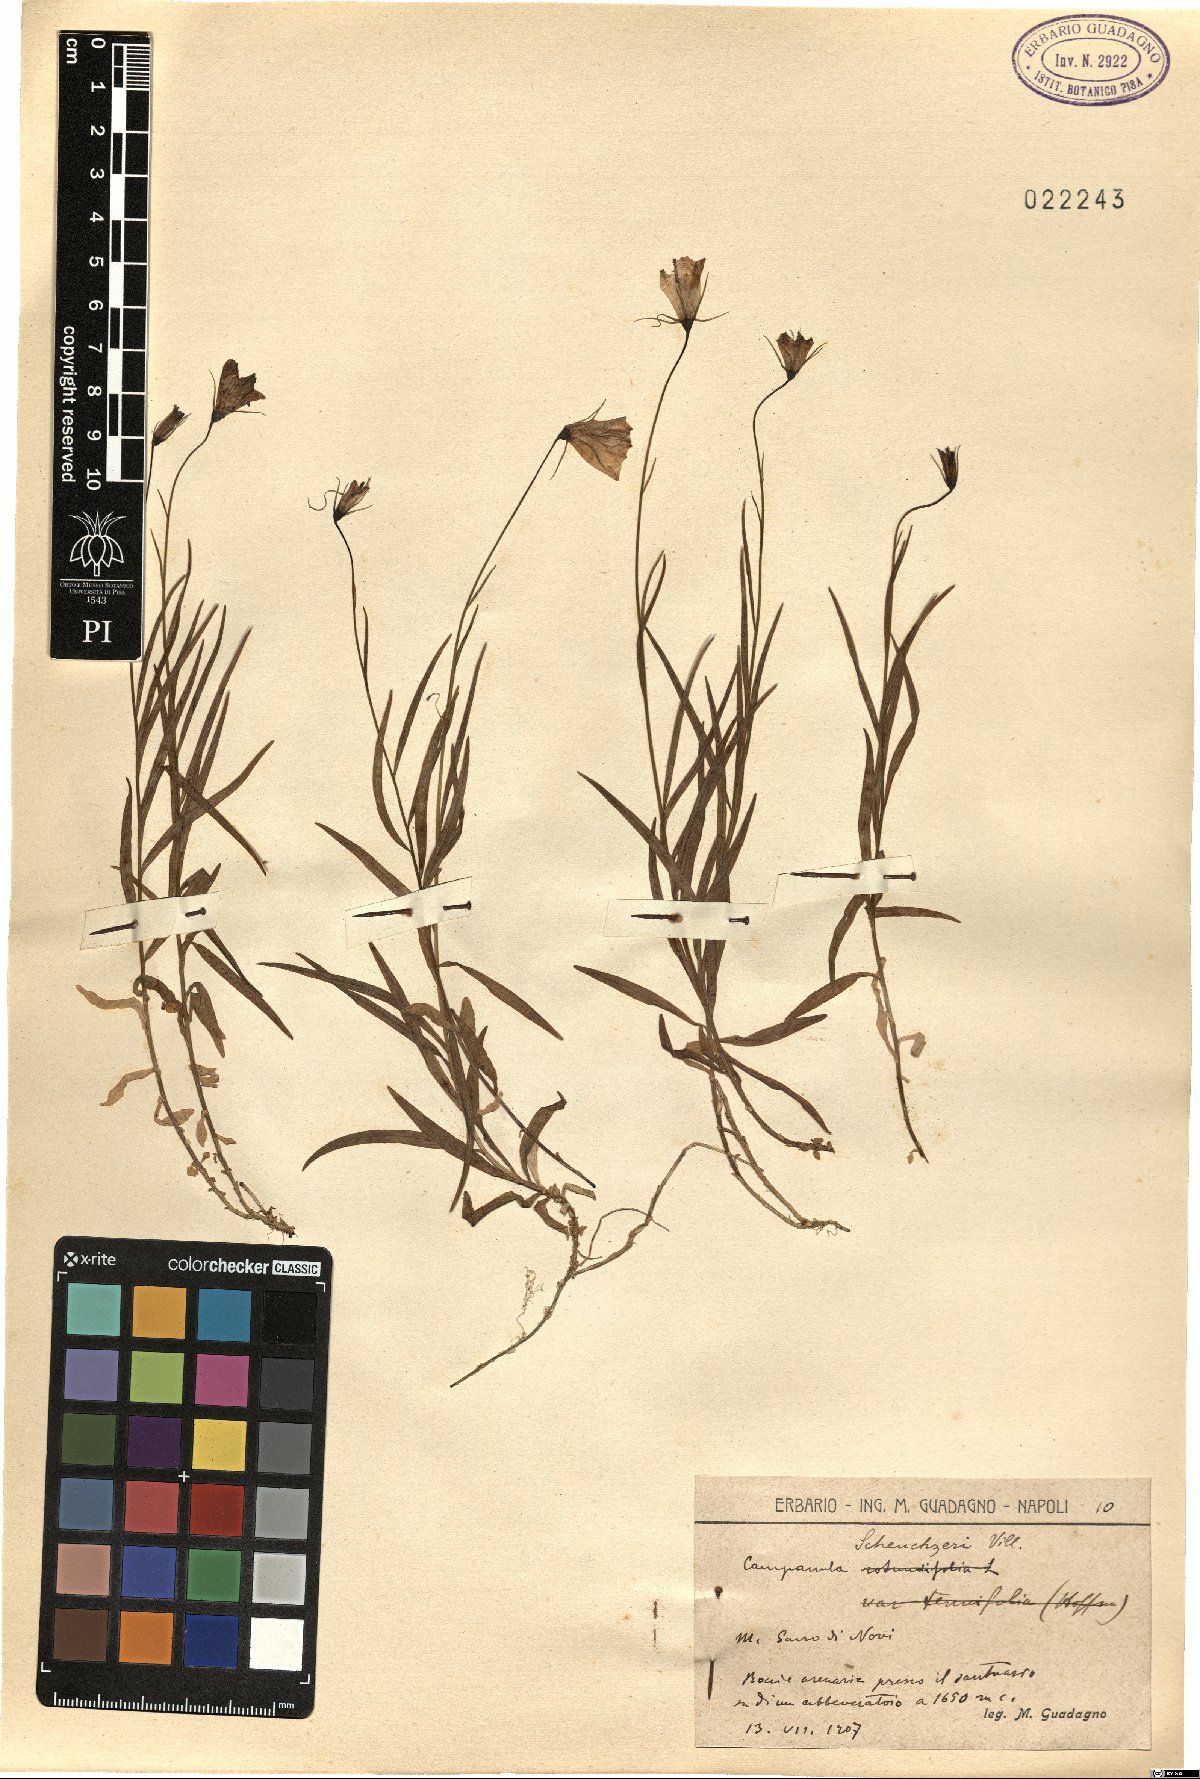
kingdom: Plantae
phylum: Tracheophyta
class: Magnoliopsida
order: Asterales
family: Campanulaceae
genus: Campanula
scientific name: Campanula scheuchzeri
